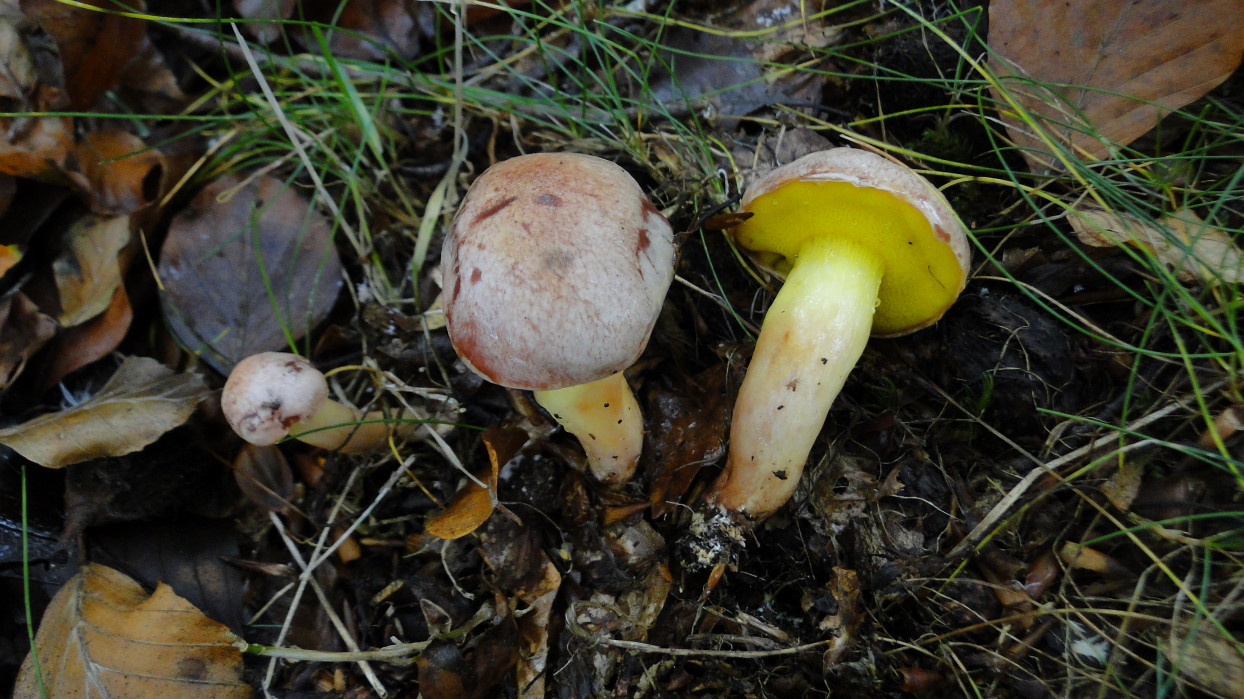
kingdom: Fungi
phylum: Basidiomycota
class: Agaricomycetes
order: Boletales
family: Boletaceae
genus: Aureoboletus
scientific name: Aureoboletus gentilis
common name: guldrørhat
